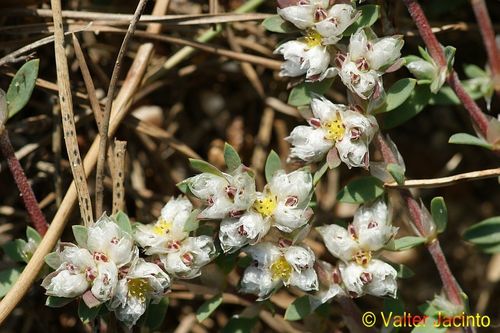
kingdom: Plantae
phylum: Tracheophyta
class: Magnoliopsida
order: Caryophyllales
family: Caryophyllaceae
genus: Paronychia
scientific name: Paronychia argentea
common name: Silver nailroot
